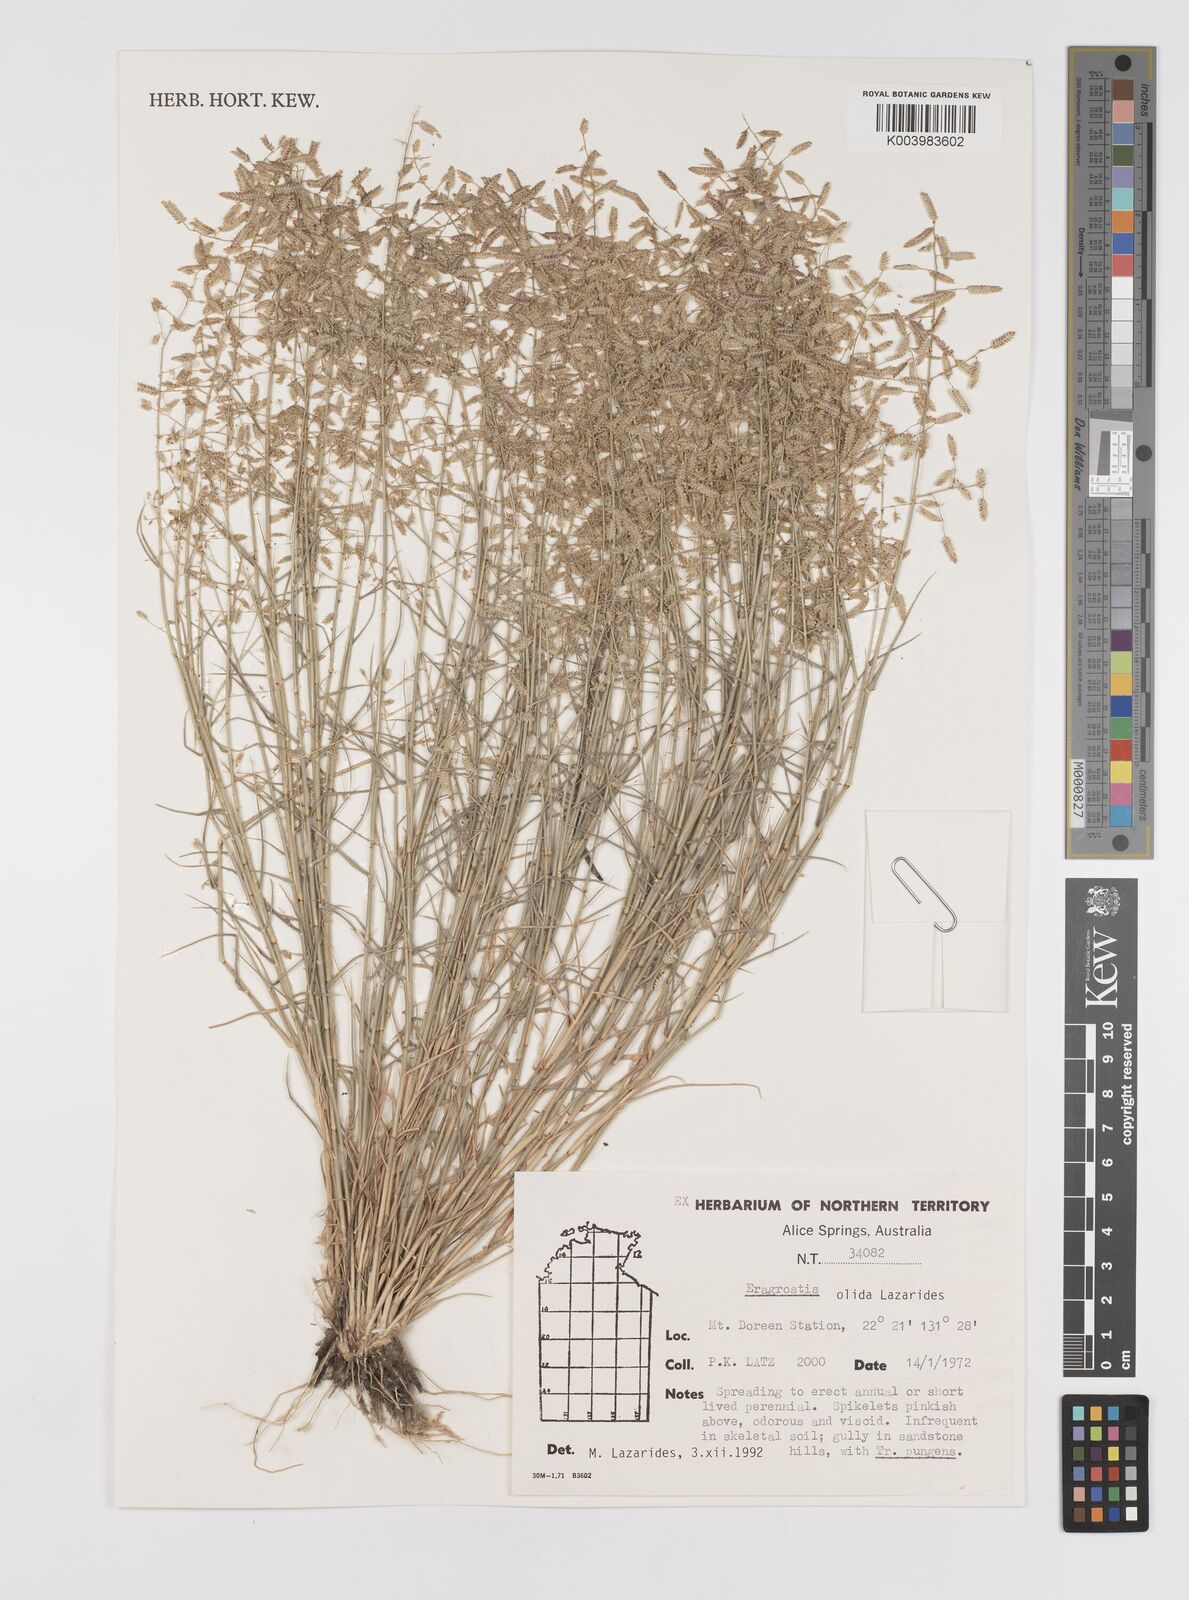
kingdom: Plantae
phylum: Tracheophyta
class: Liliopsida
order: Poales
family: Poaceae
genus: Eragrostis
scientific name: Eragrostis olida
